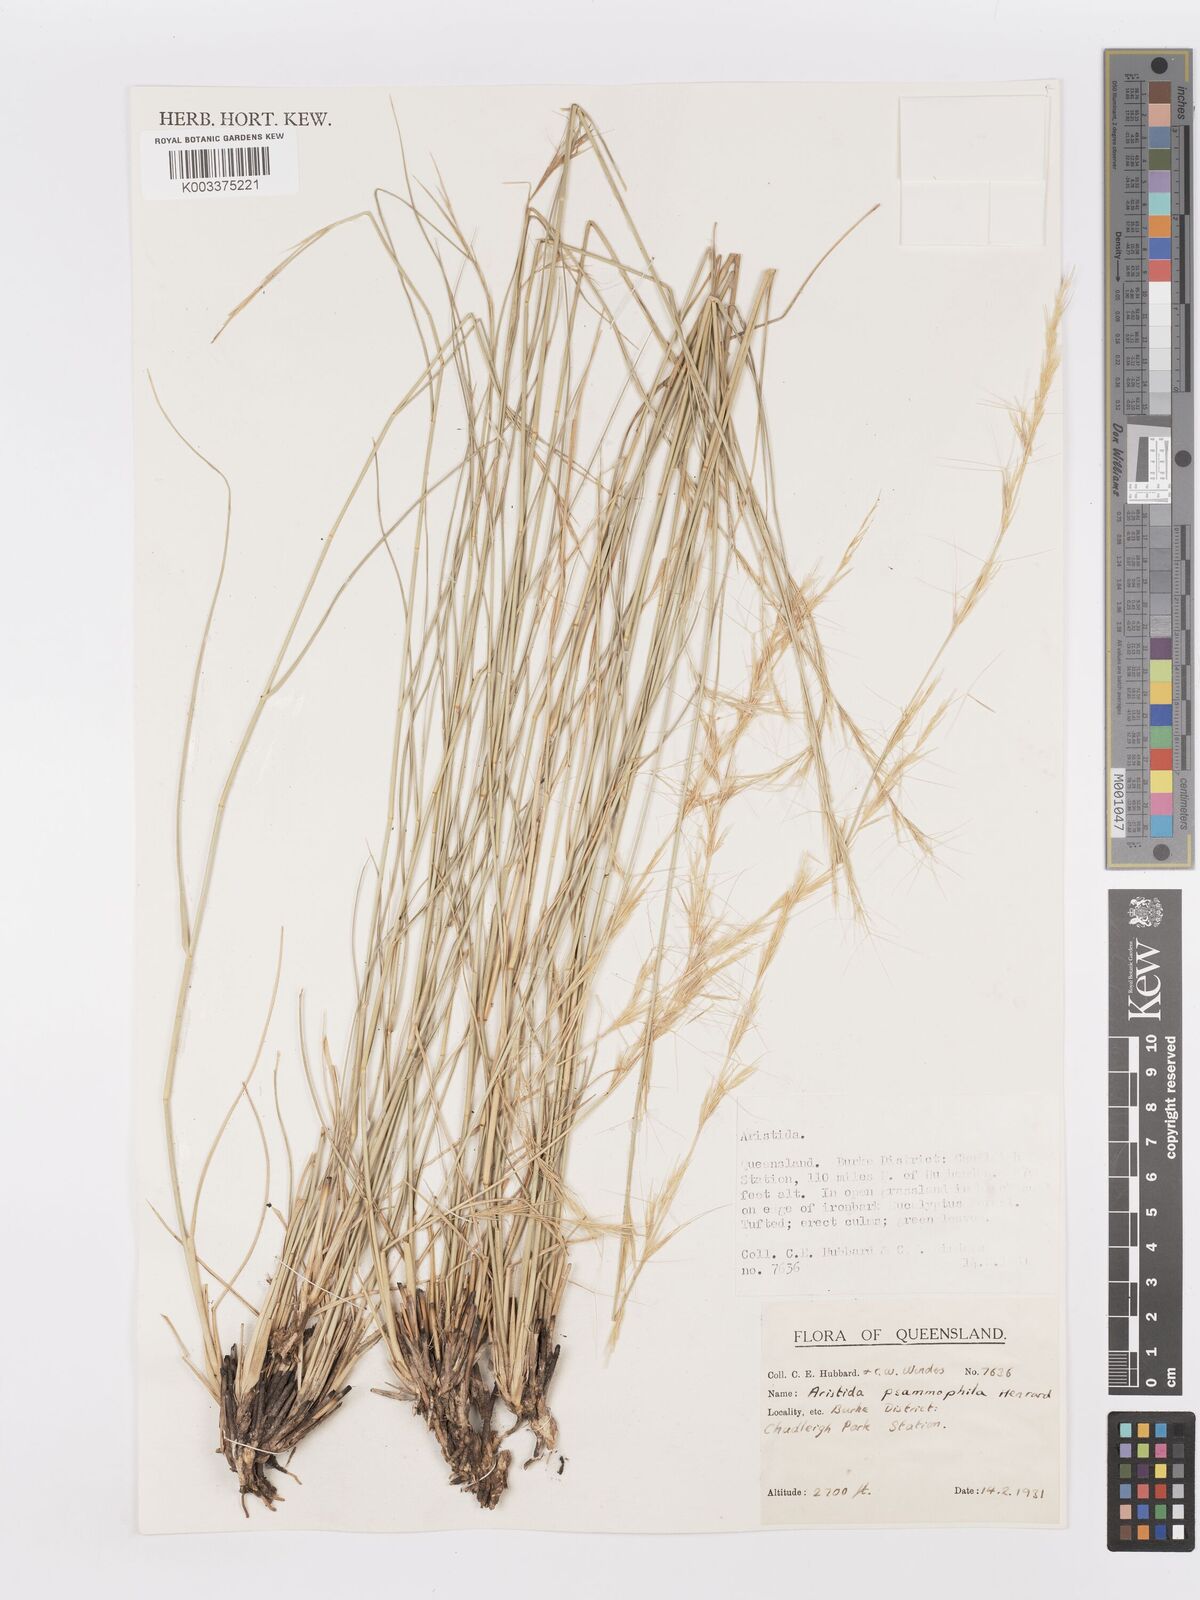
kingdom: Plantae
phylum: Tracheophyta
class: Liliopsida
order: Poales
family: Poaceae
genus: Aristida
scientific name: Aristida psammophila
